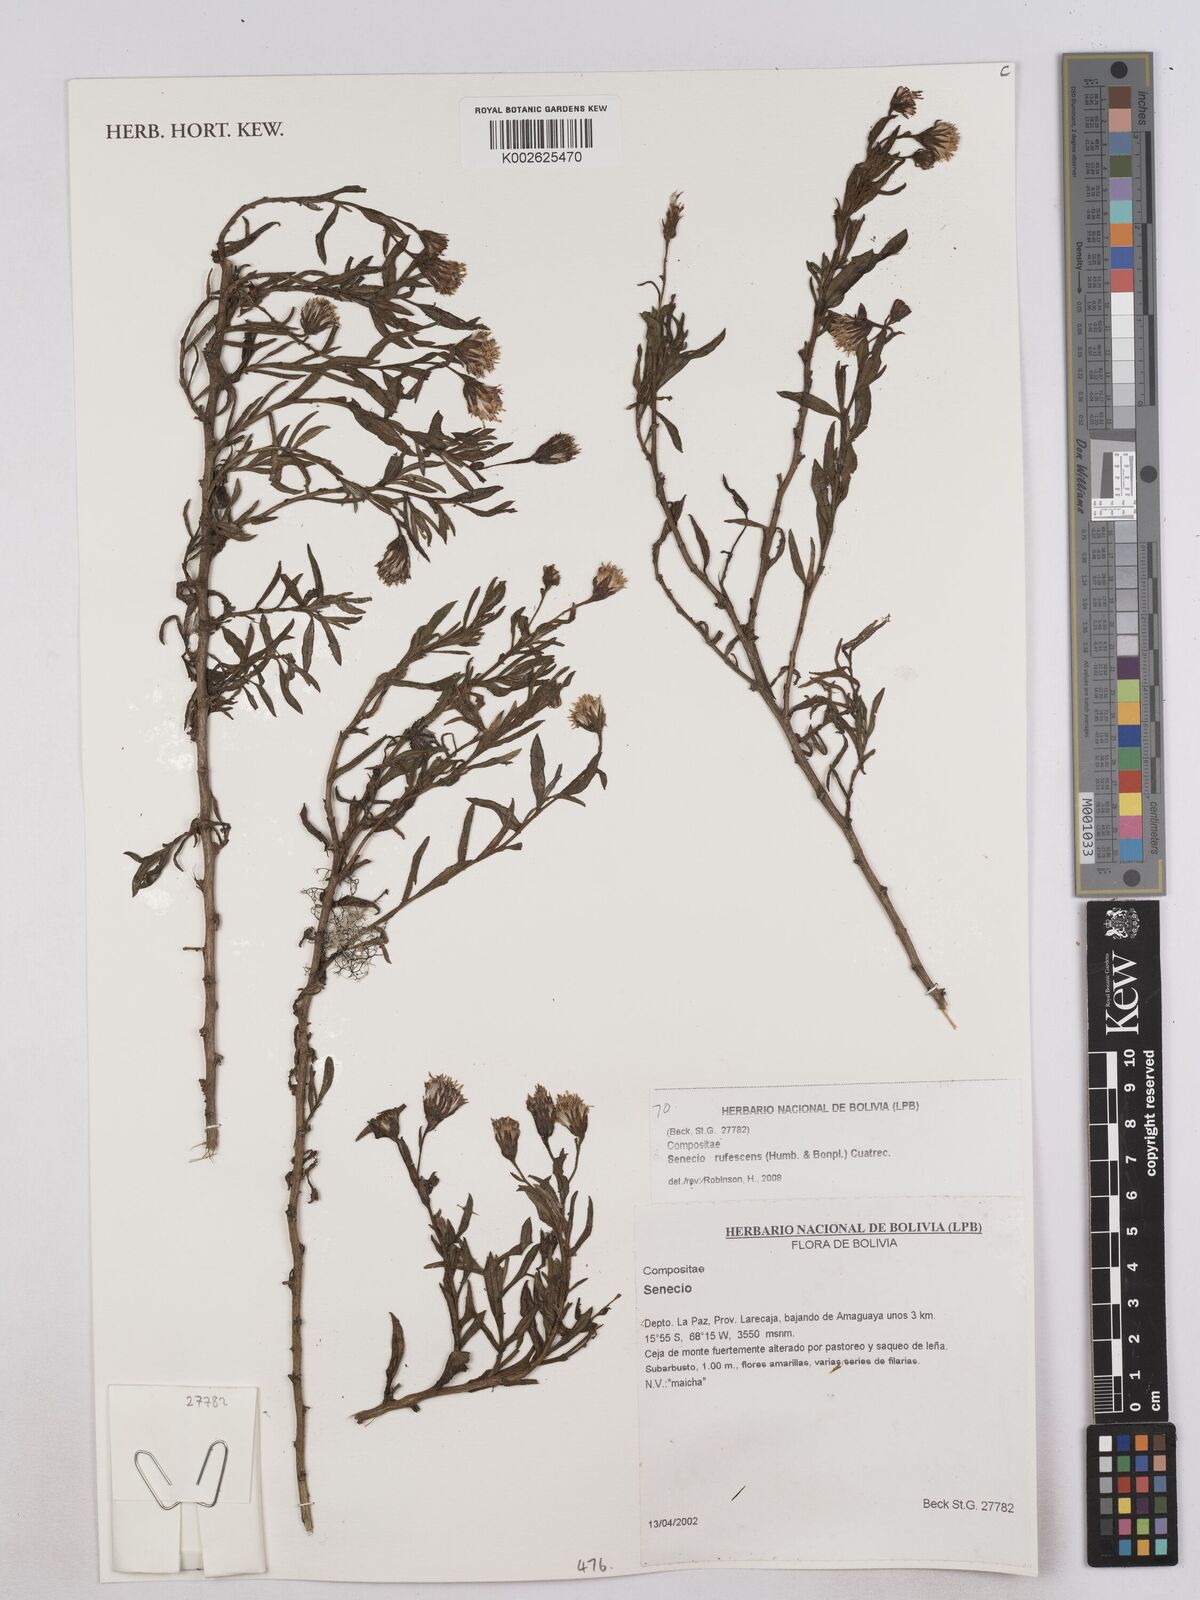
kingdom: Plantae
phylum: Tracheophyta
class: Magnoliopsida
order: Asterales
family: Asteraceae
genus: Culcitium
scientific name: Culcitium canescens
